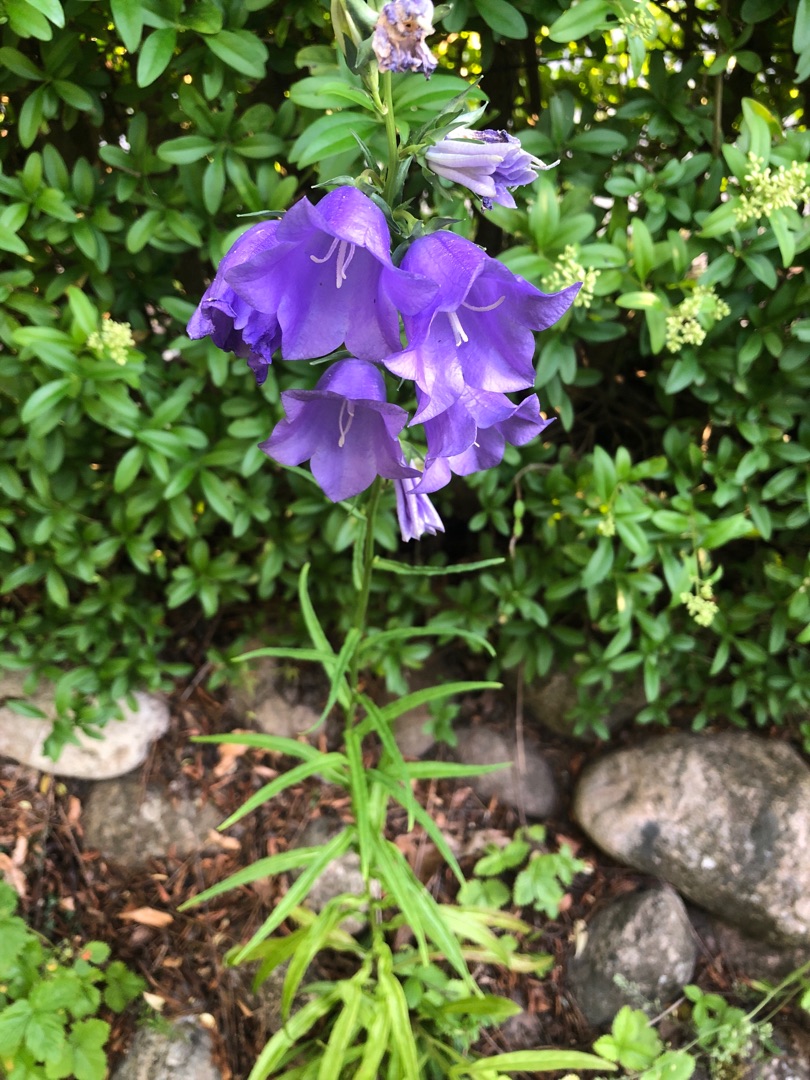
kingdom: Plantae
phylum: Tracheophyta
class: Magnoliopsida
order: Asterales
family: Campanulaceae
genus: Campanula
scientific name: Campanula persicifolia
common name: Smalbladet klokke
